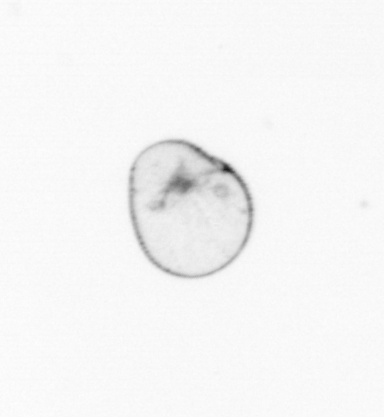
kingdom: Chromista
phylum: Myzozoa
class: Dinophyceae
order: Noctilucales
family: Noctilucaceae
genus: Noctiluca
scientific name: Noctiluca scintillans
